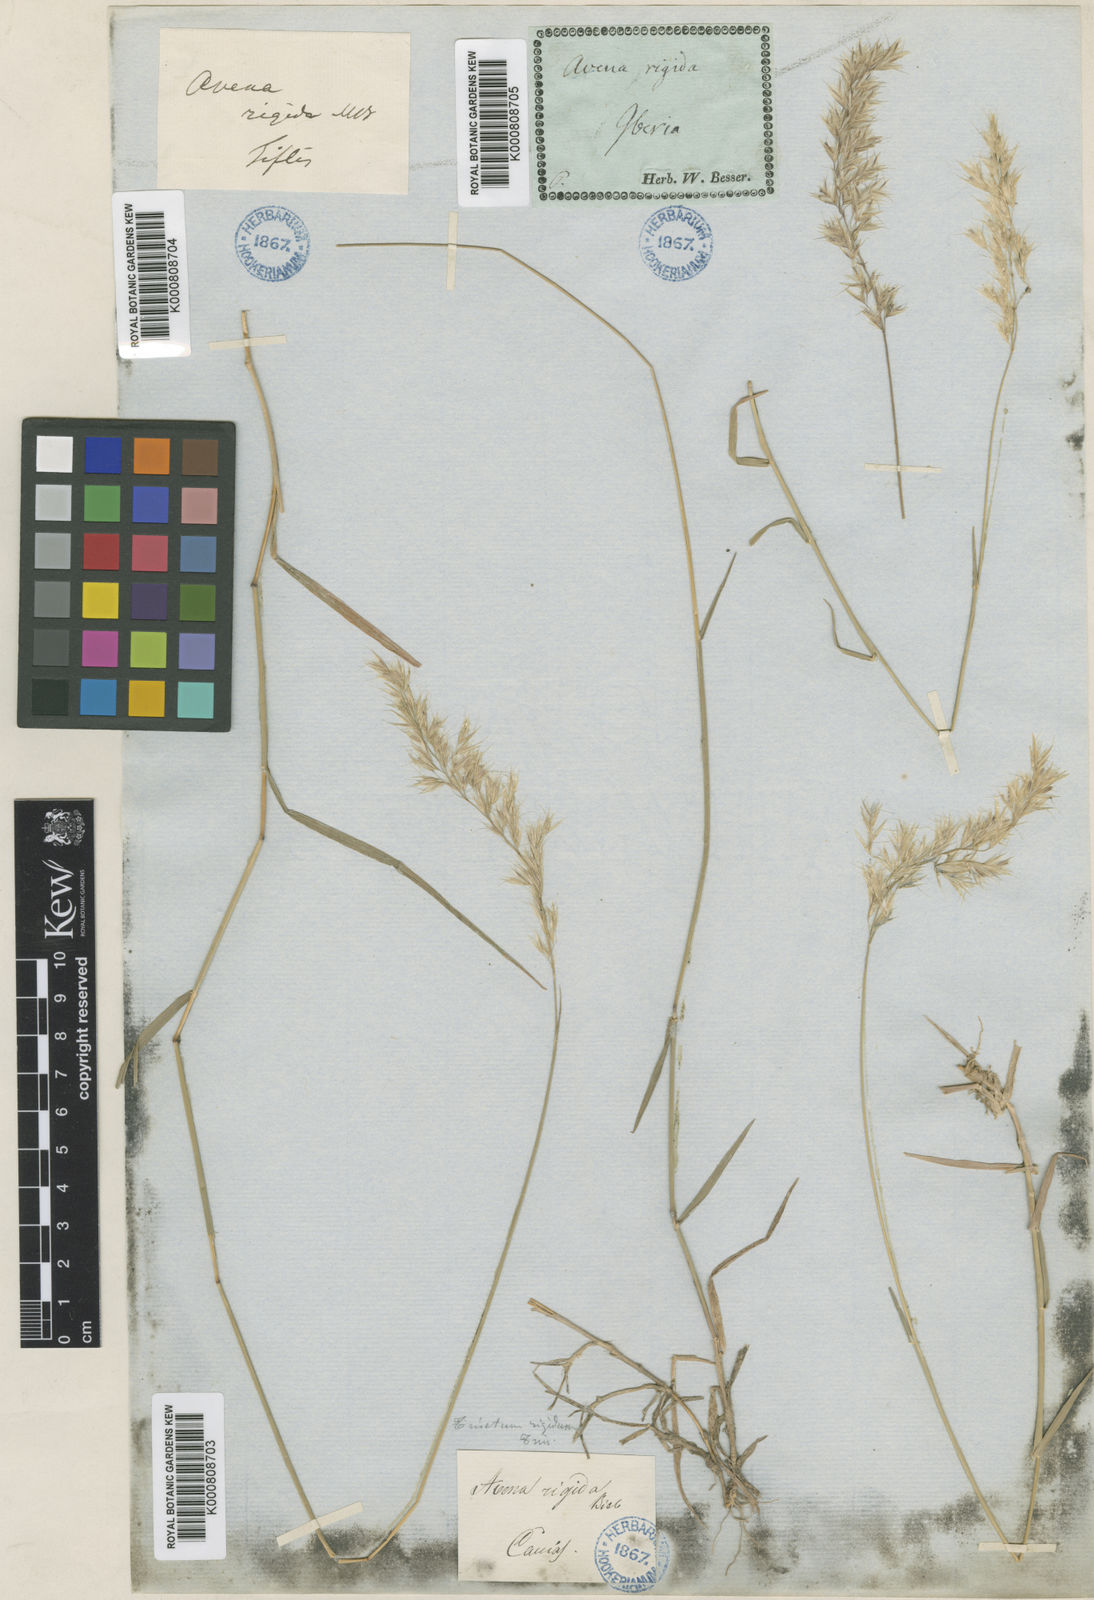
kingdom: Plantae
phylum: Tracheophyta
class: Liliopsida
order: Poales
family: Poaceae
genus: Trisetum
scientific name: Trisetum rigidum
